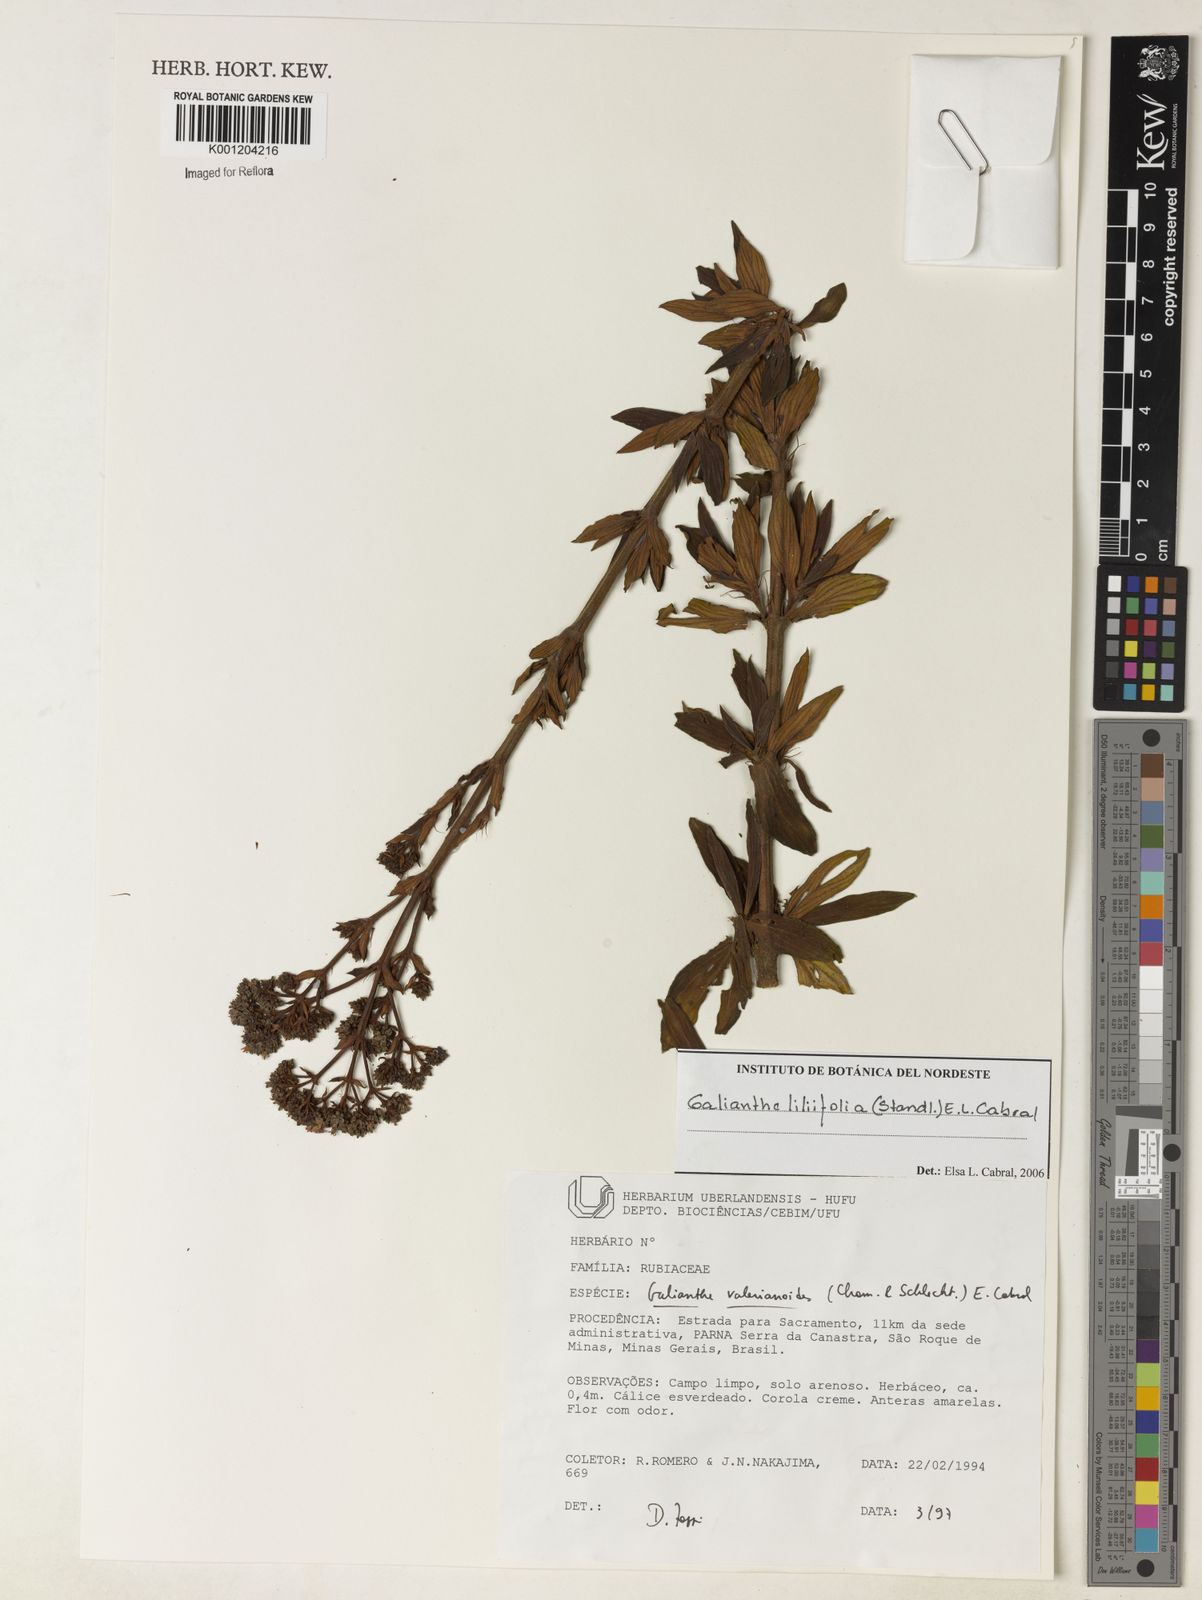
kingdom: Plantae
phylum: Tracheophyta
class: Magnoliopsida
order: Gentianales
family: Rubiaceae
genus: Galianthe
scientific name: Galianthe liliifolia
